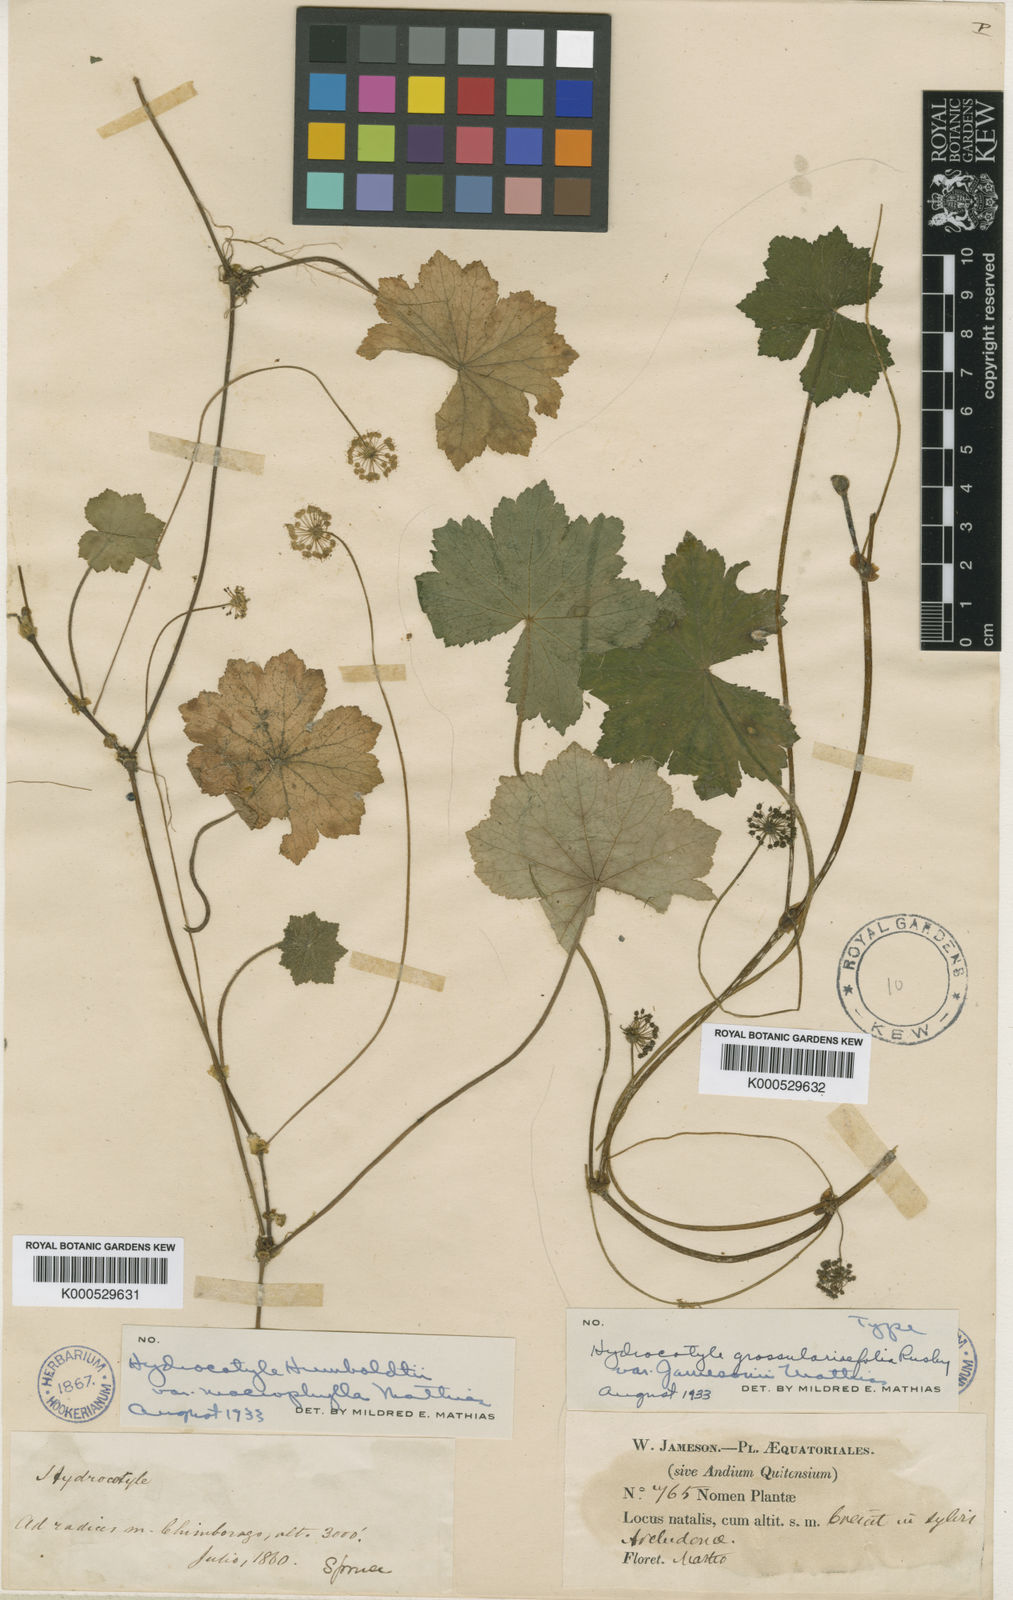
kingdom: Plantae
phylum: Tracheophyta
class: Magnoliopsida
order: Apiales
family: Araliaceae
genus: Hydrocotyle
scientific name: Hydrocotyle grossulariifolia
